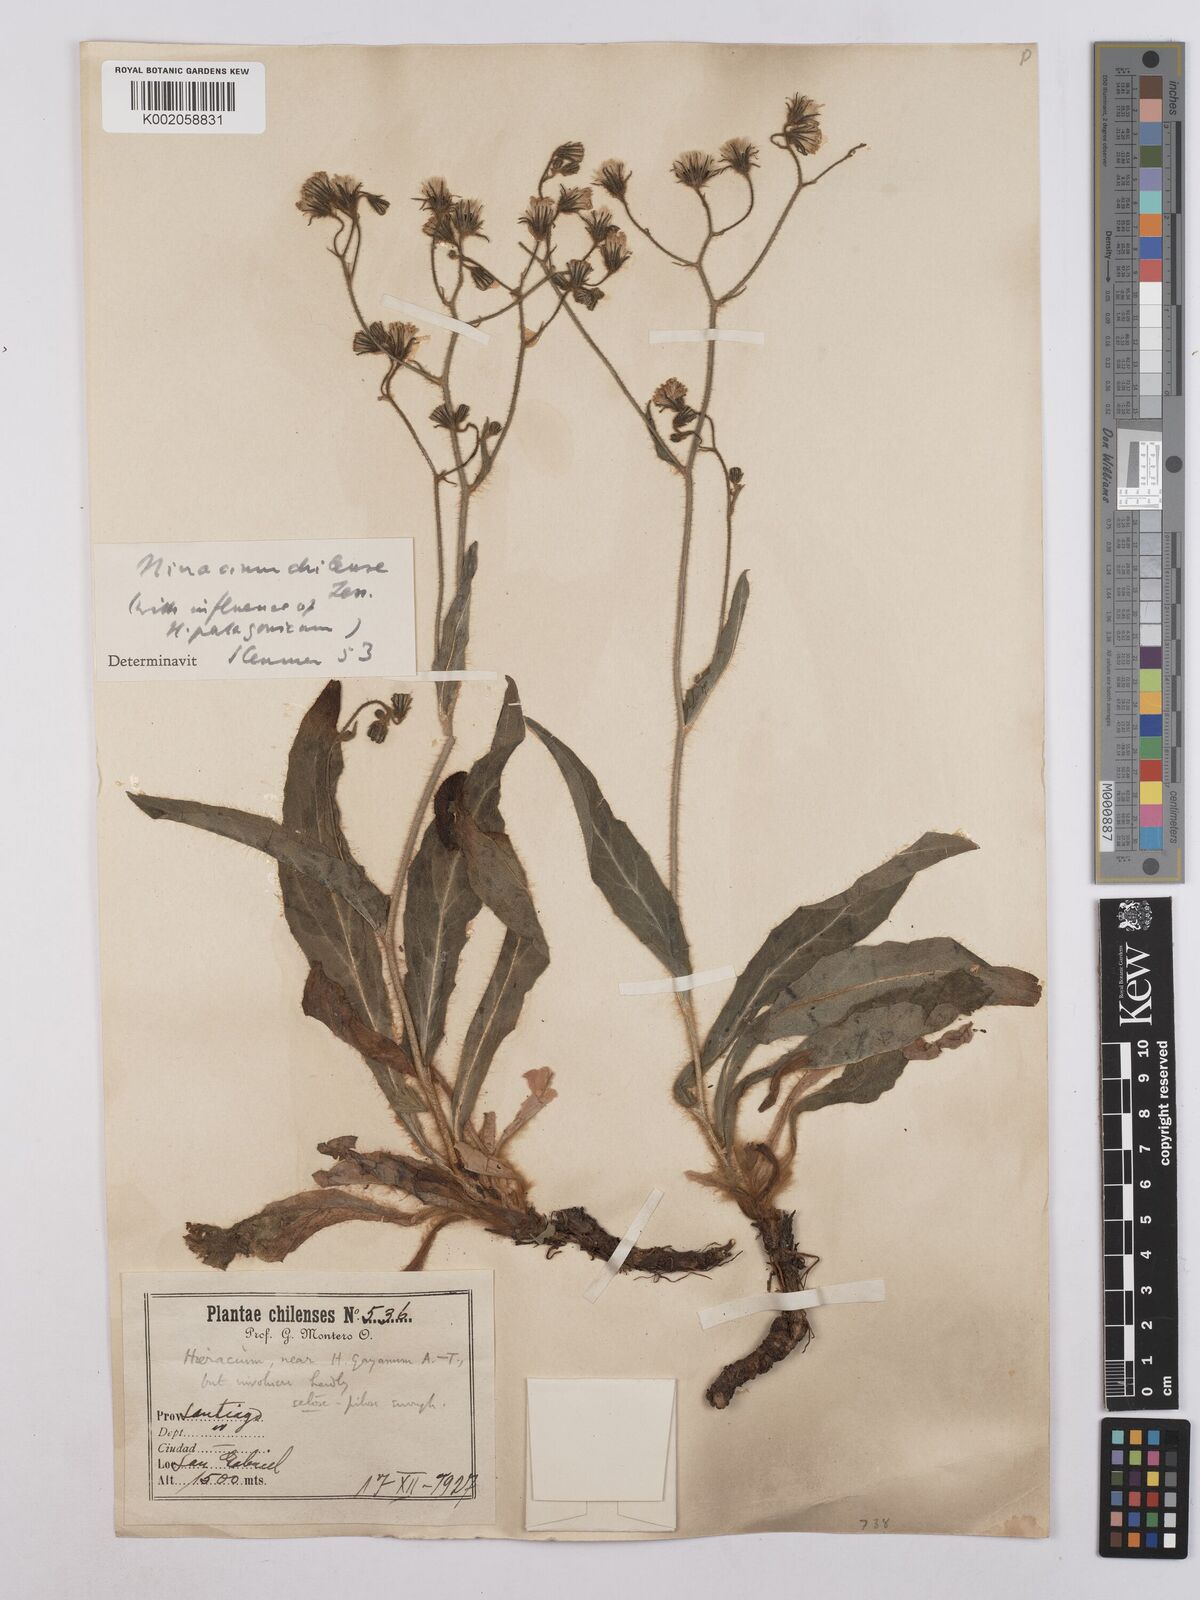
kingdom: Plantae
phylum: Tracheophyta
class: Magnoliopsida
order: Asterales
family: Asteraceae
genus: Hieracium
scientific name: Hieracium chilense
